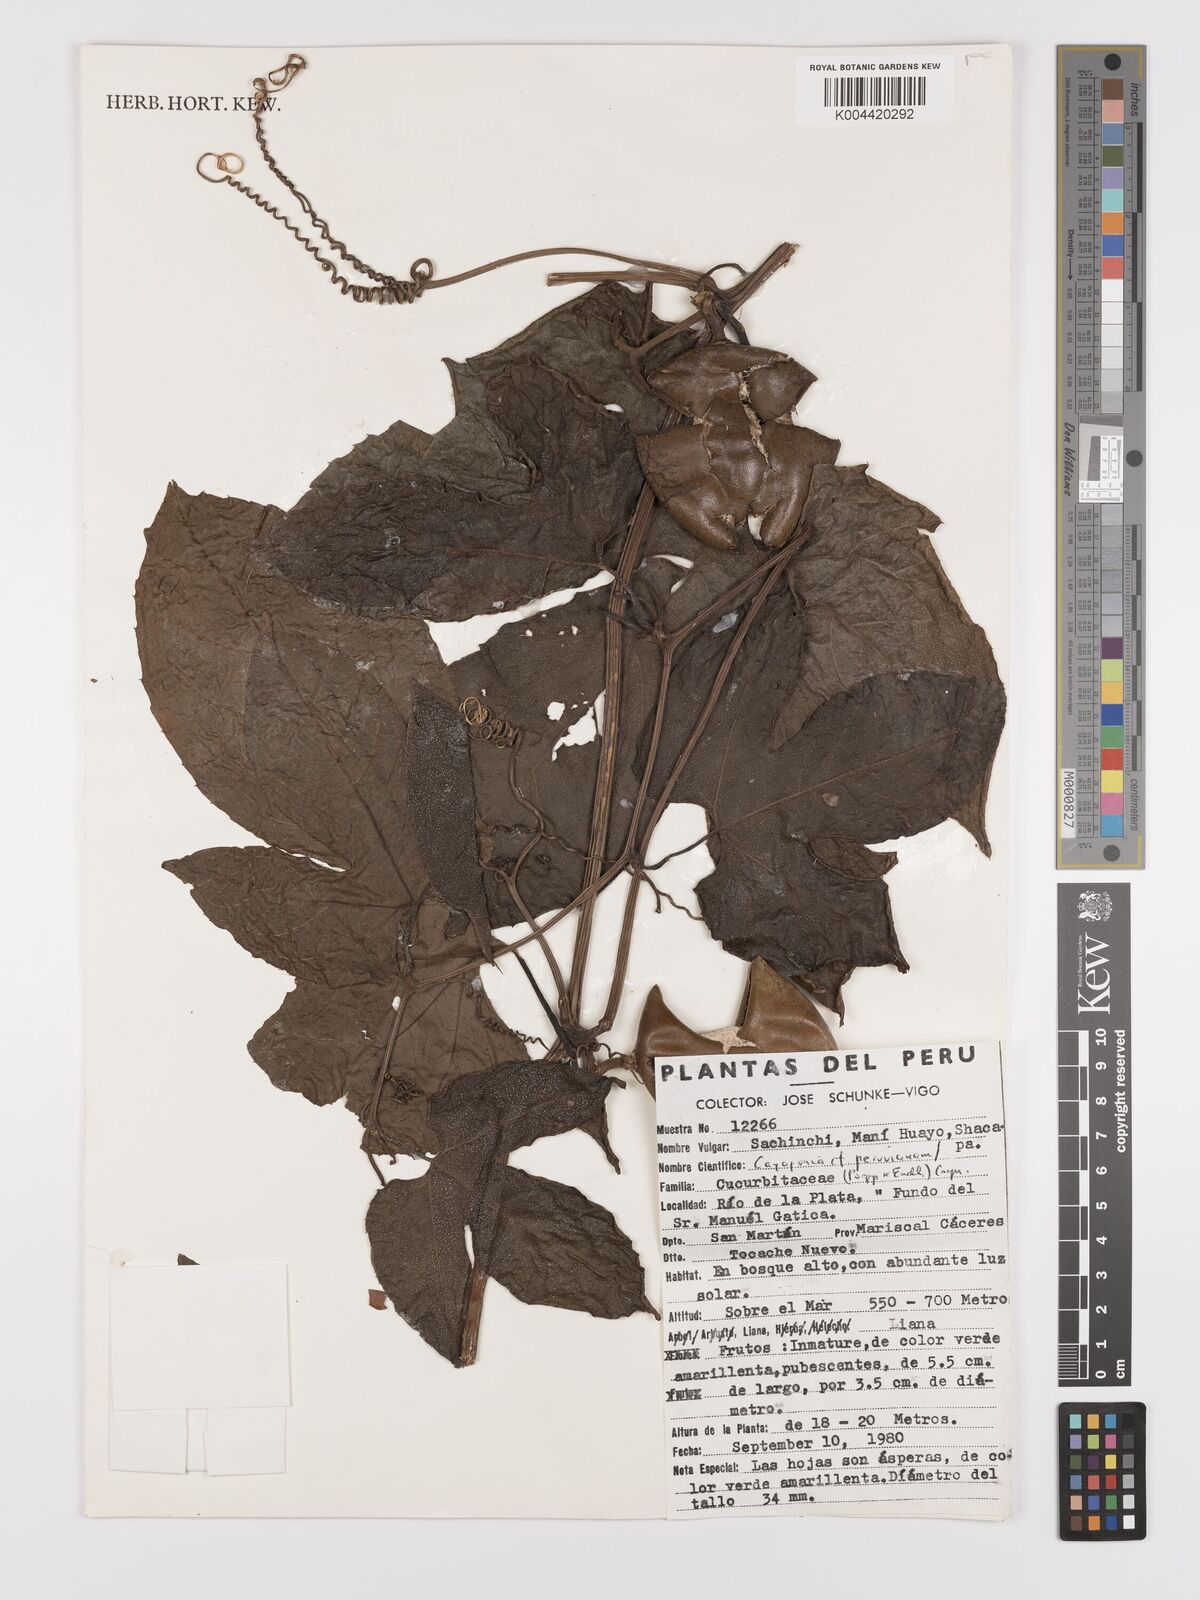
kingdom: Plantae
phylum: Tracheophyta
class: Magnoliopsida
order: Cucurbitales
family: Cucurbitaceae
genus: Cayaponia
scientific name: Cayaponia peruviana
